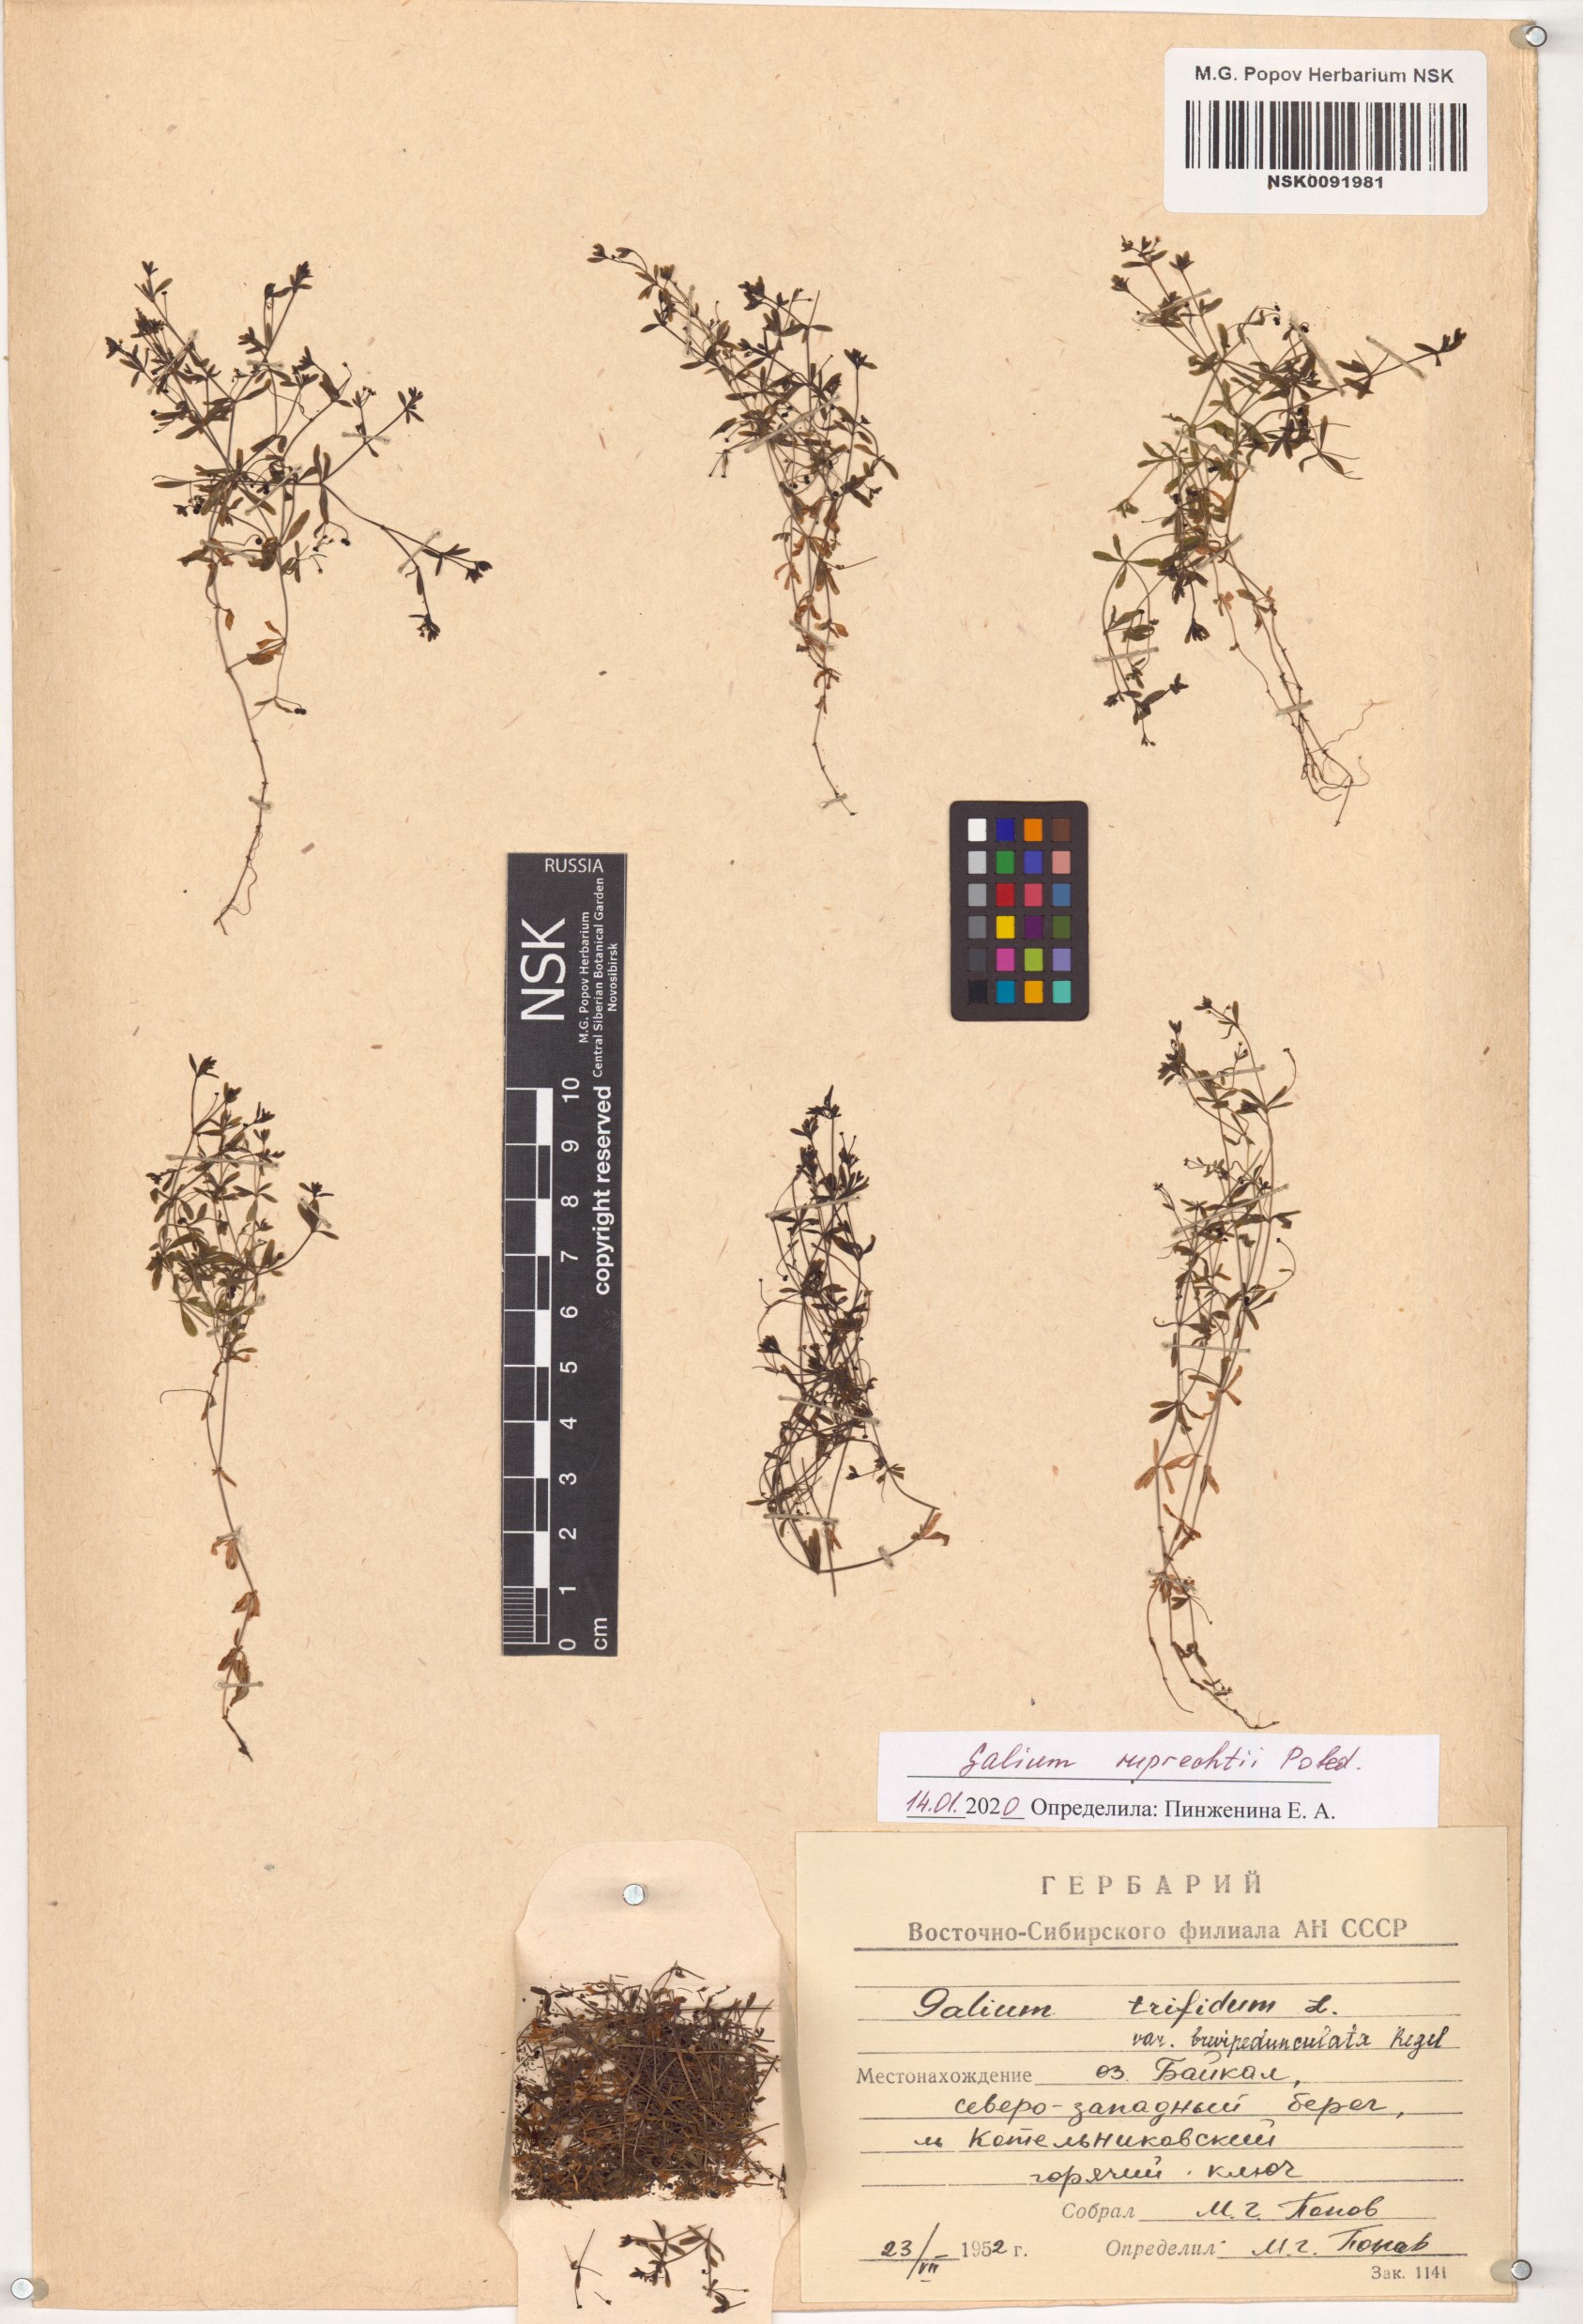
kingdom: Plantae
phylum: Tracheophyta
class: Magnoliopsida
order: Gentianales
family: Rubiaceae
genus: Galium
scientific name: Galium trifidum
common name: Small bedstraw
